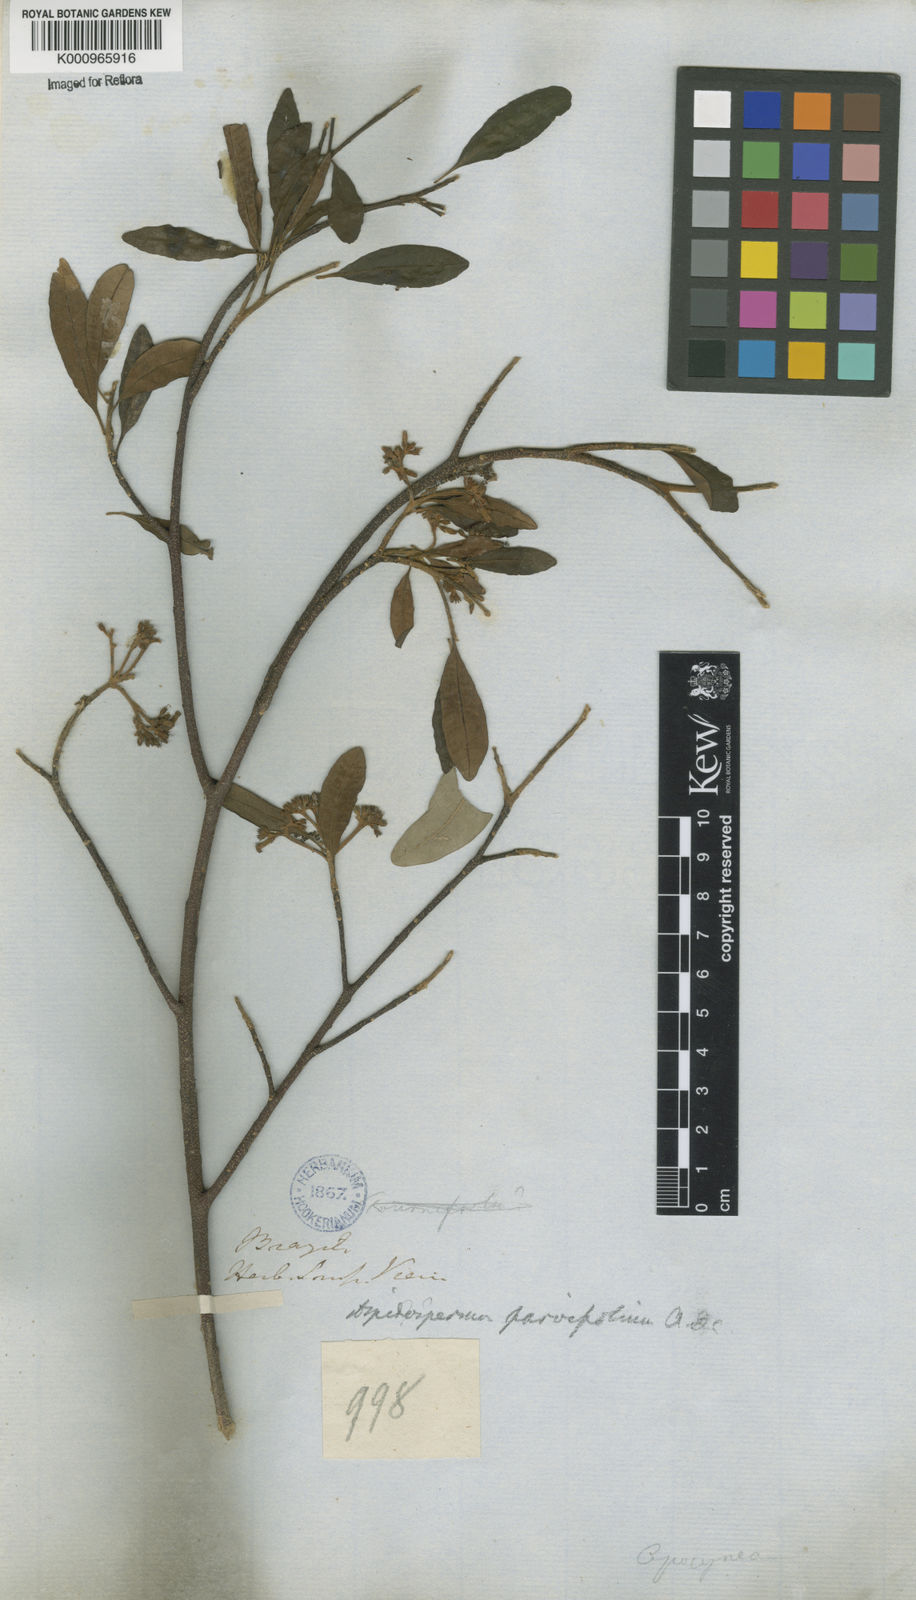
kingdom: Plantae
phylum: Tracheophyta
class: Magnoliopsida
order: Gentianales
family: Apocynaceae
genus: Aspidosperma
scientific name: Aspidosperma
